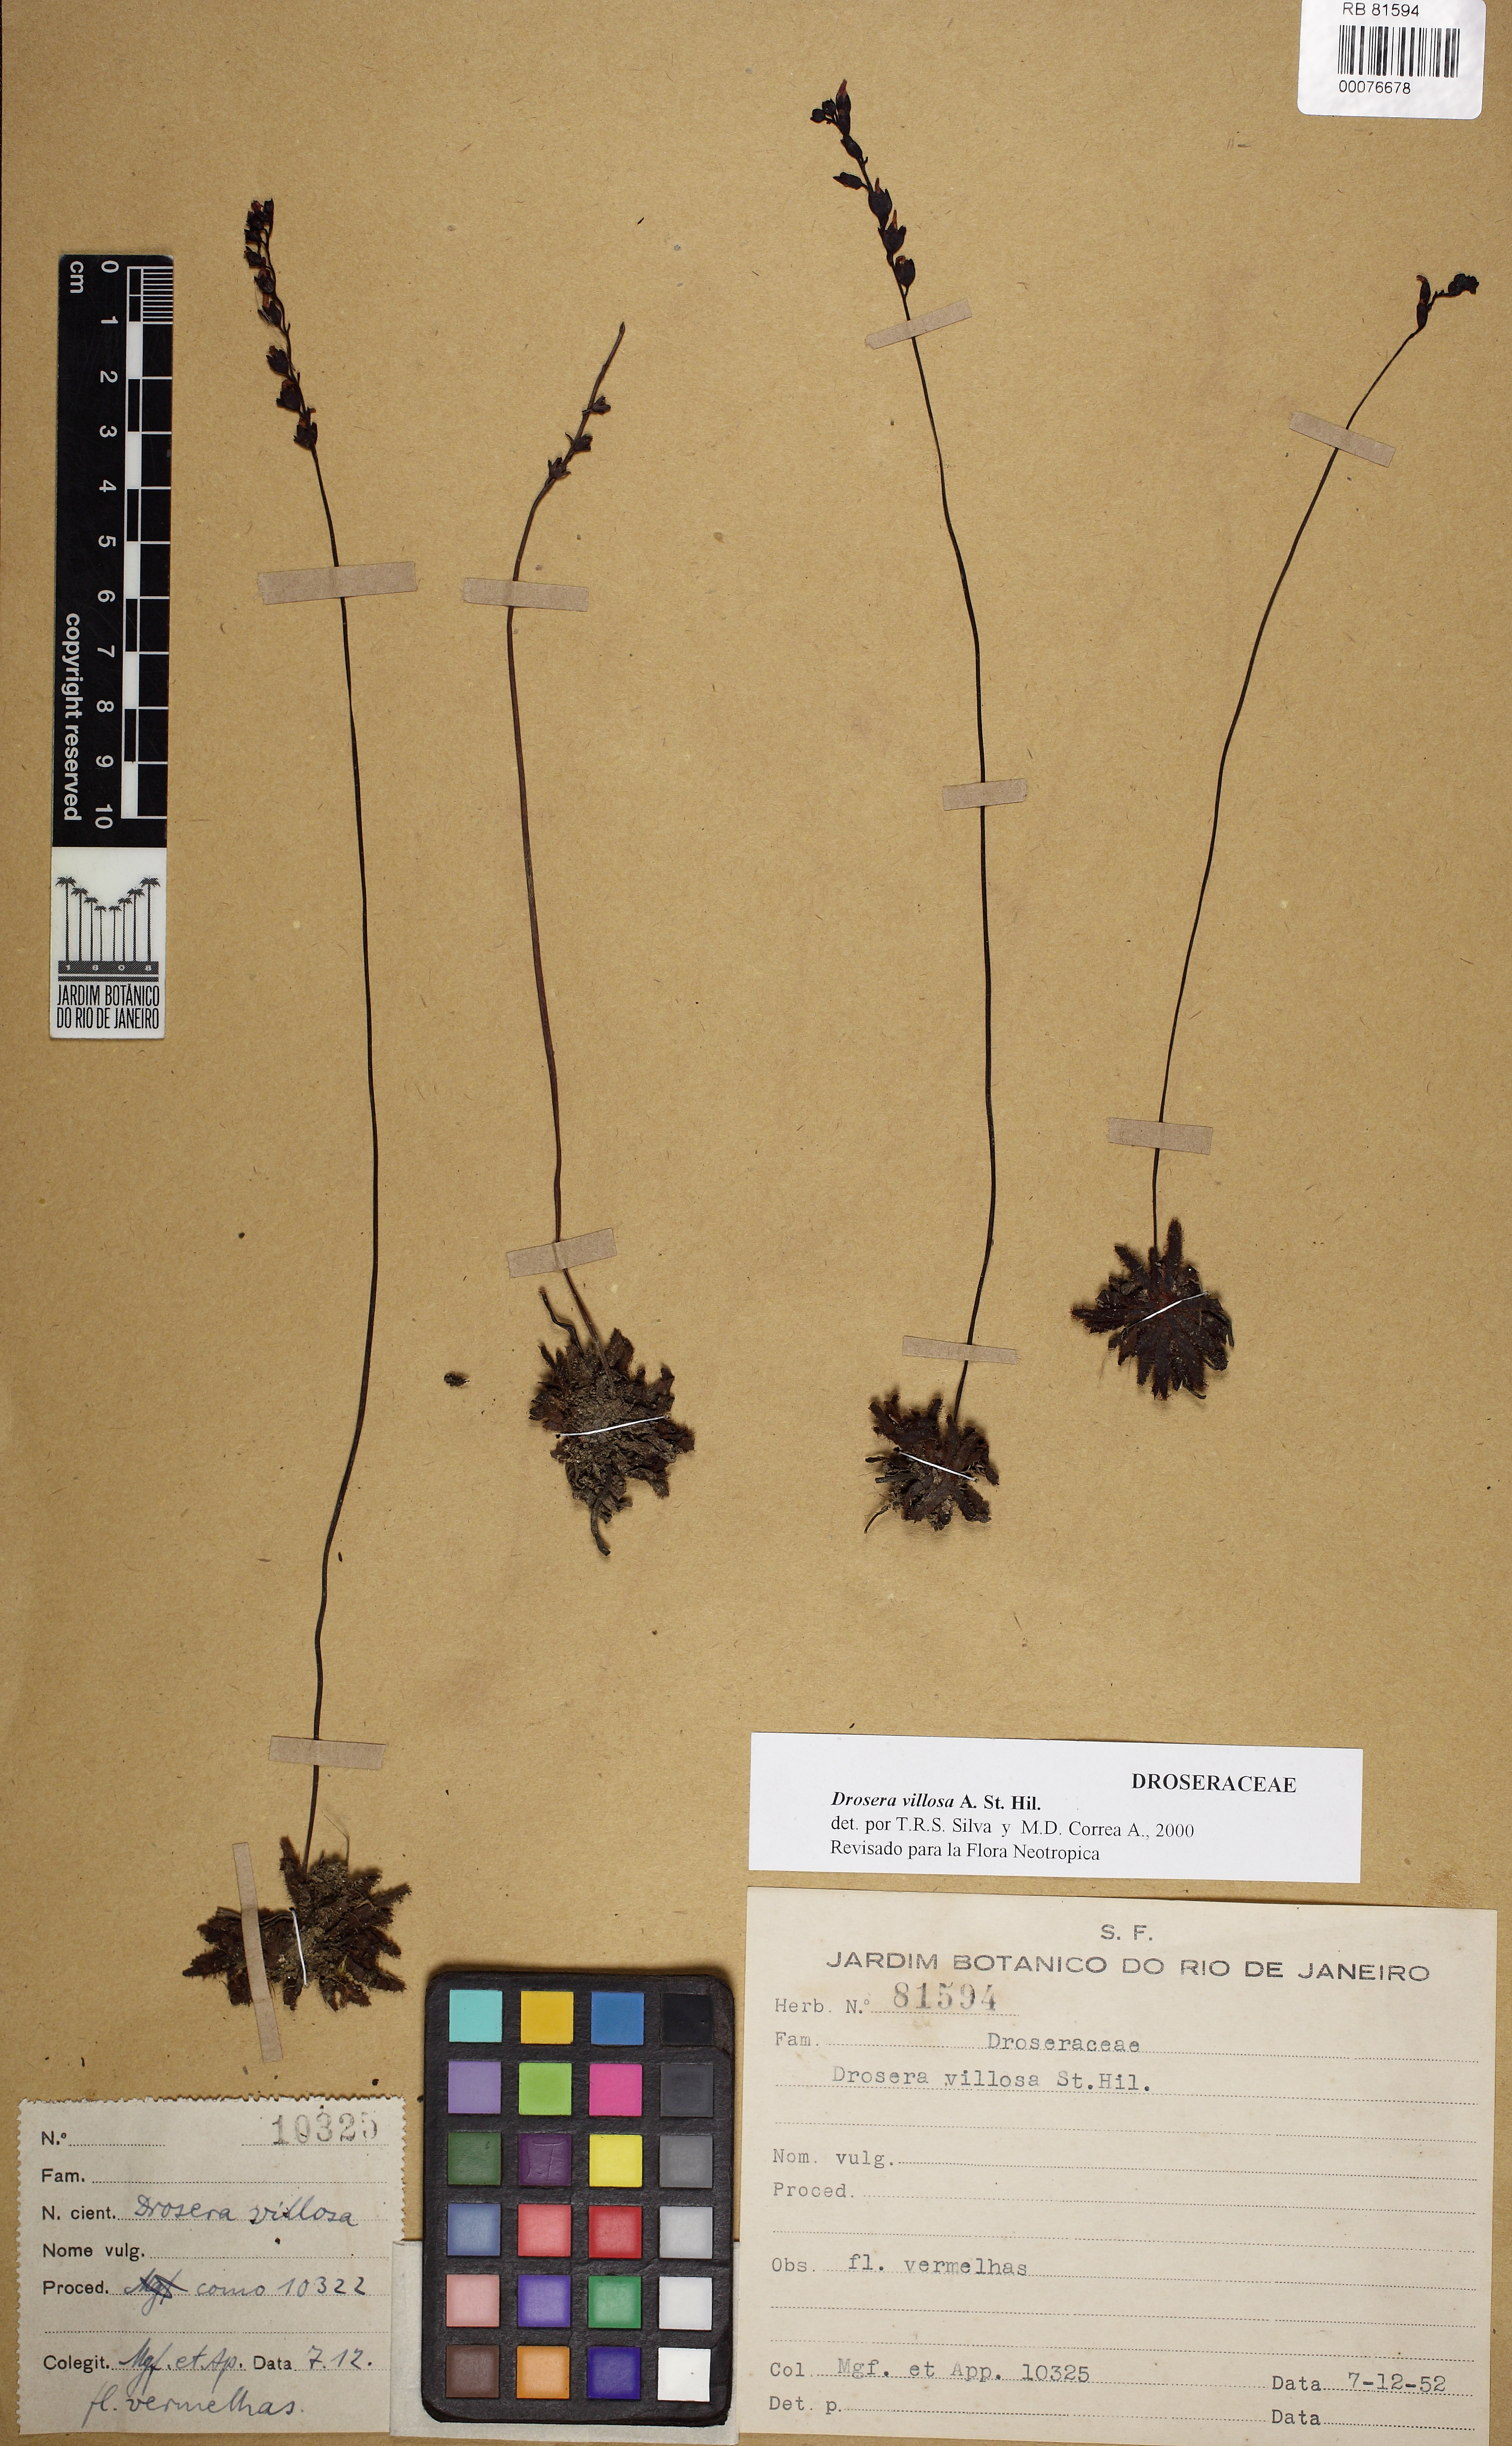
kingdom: Plantae
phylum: Tracheophyta
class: Magnoliopsida
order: Caryophyllales
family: Droseraceae
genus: Drosera
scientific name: Drosera villosa
